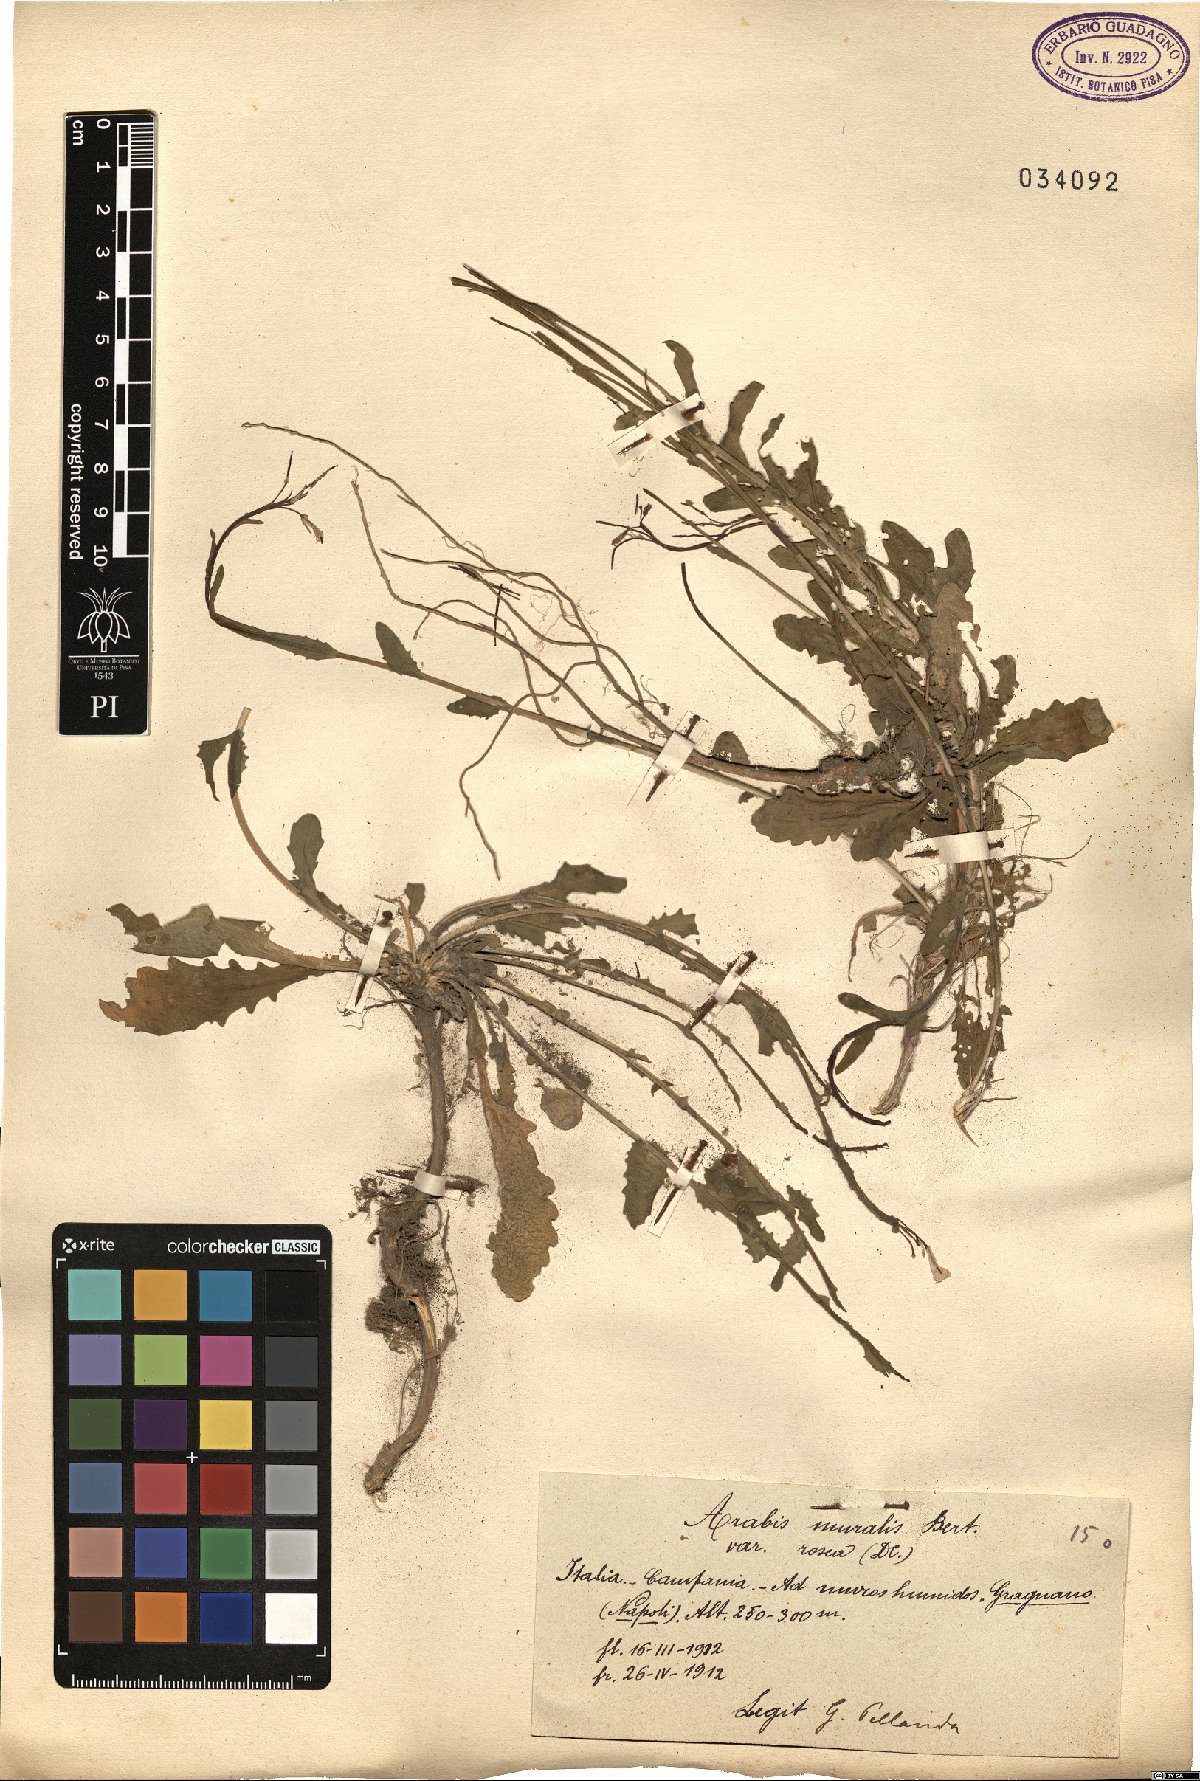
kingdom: Plantae
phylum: Tracheophyta
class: Magnoliopsida
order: Brassicales
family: Brassicaceae
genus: Arabis
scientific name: Arabis collina
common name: Rosy cress
